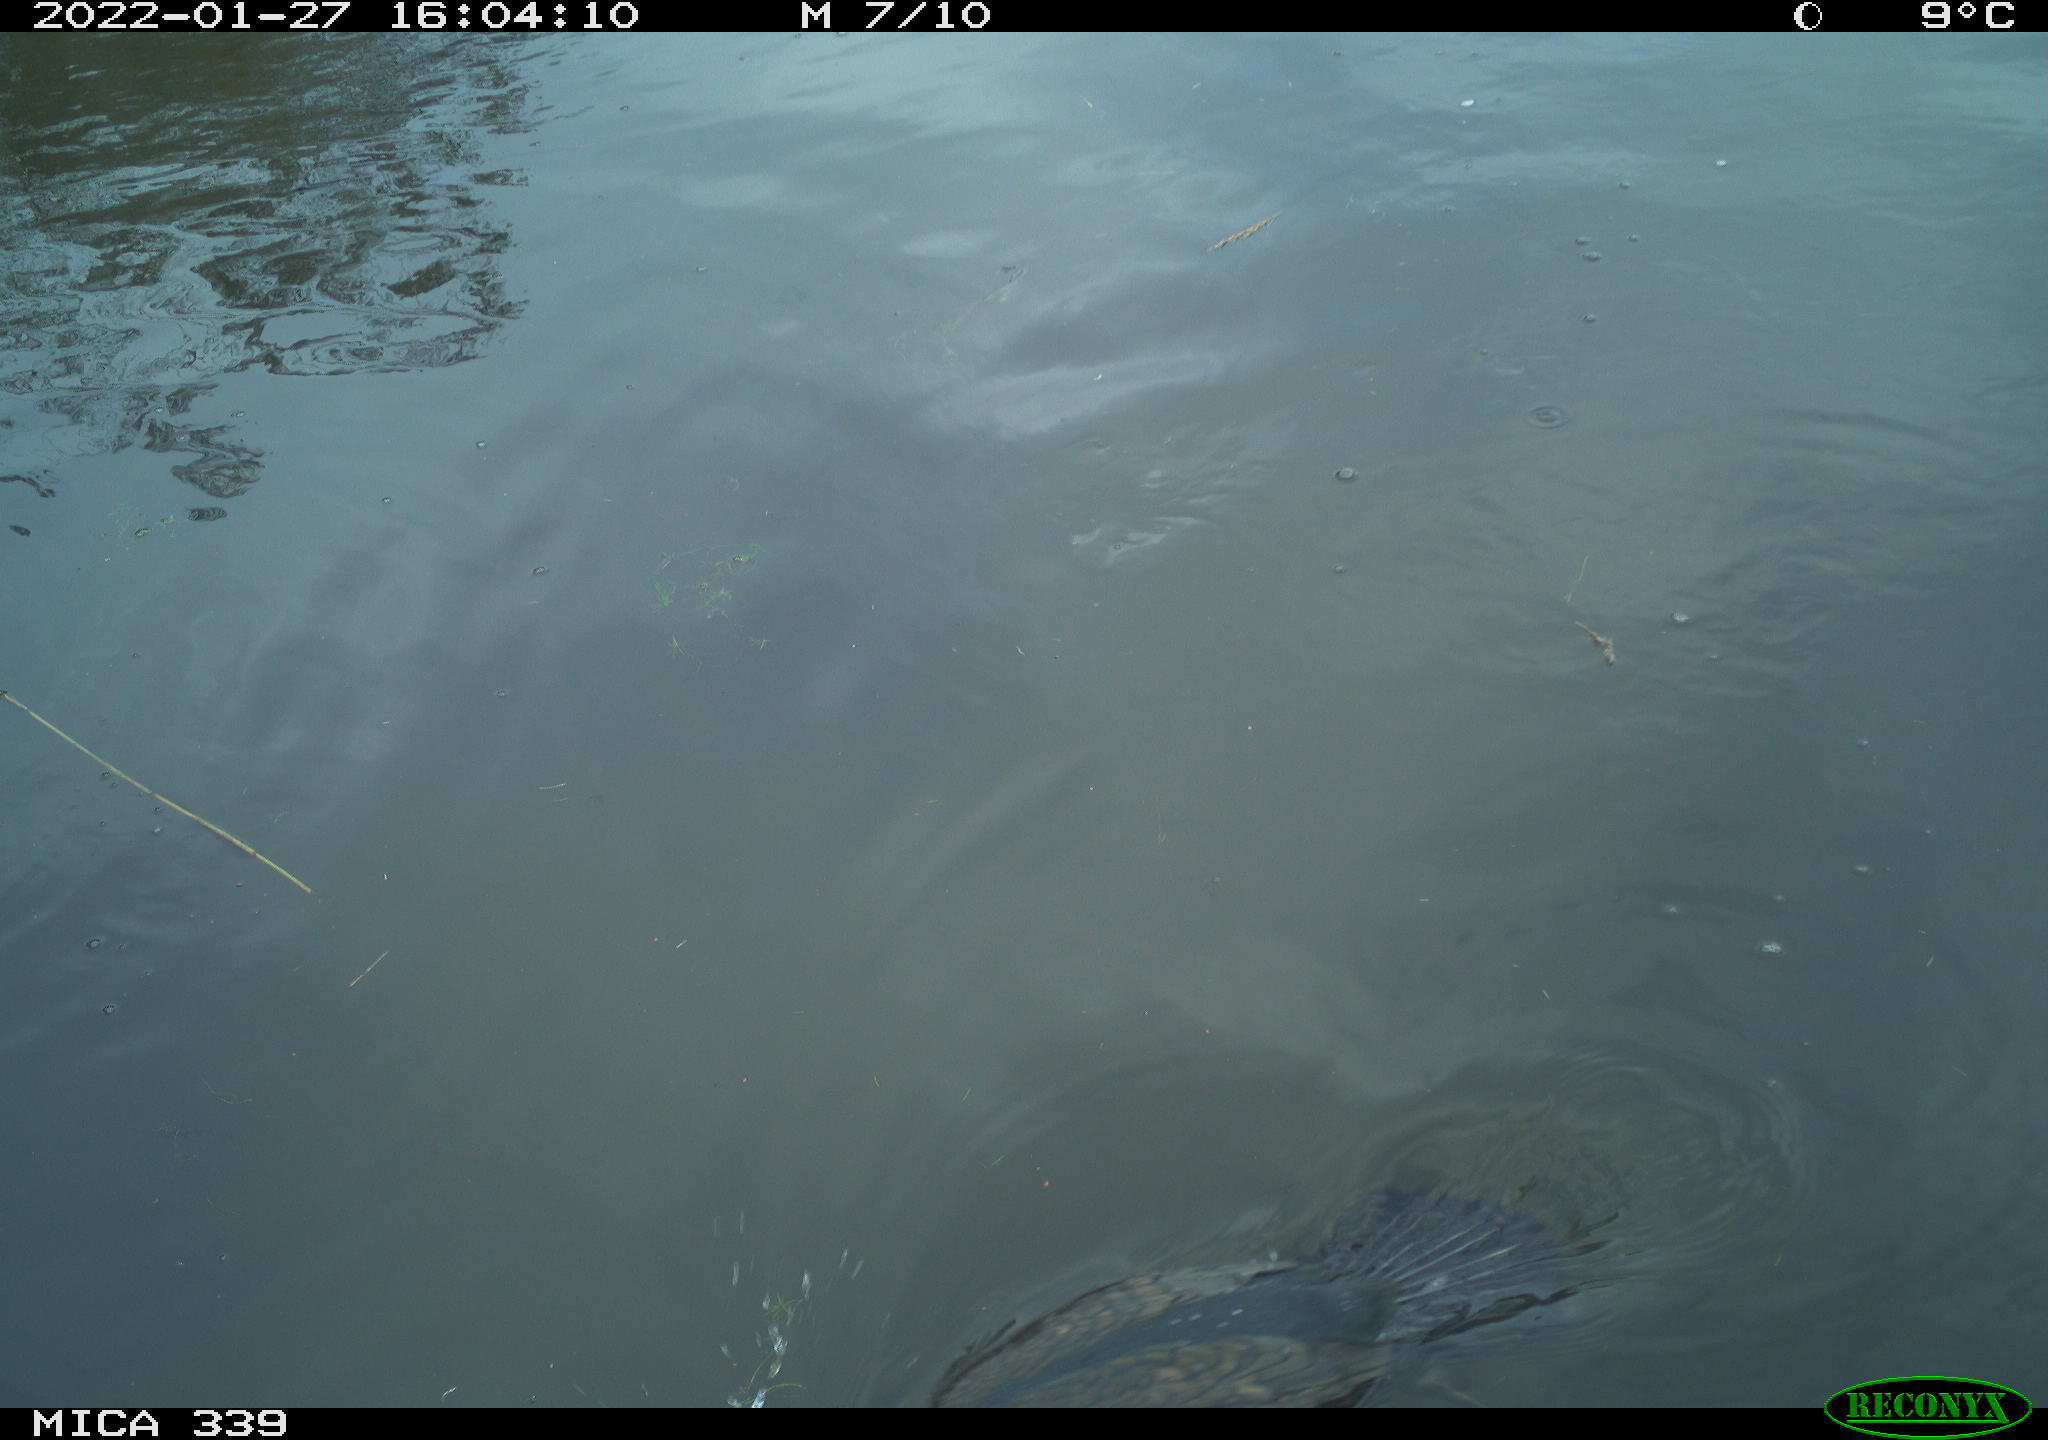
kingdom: Animalia
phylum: Chordata
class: Aves
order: Suliformes
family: Phalacrocoracidae
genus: Phalacrocorax
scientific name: Phalacrocorax carbo
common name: Great cormorant
